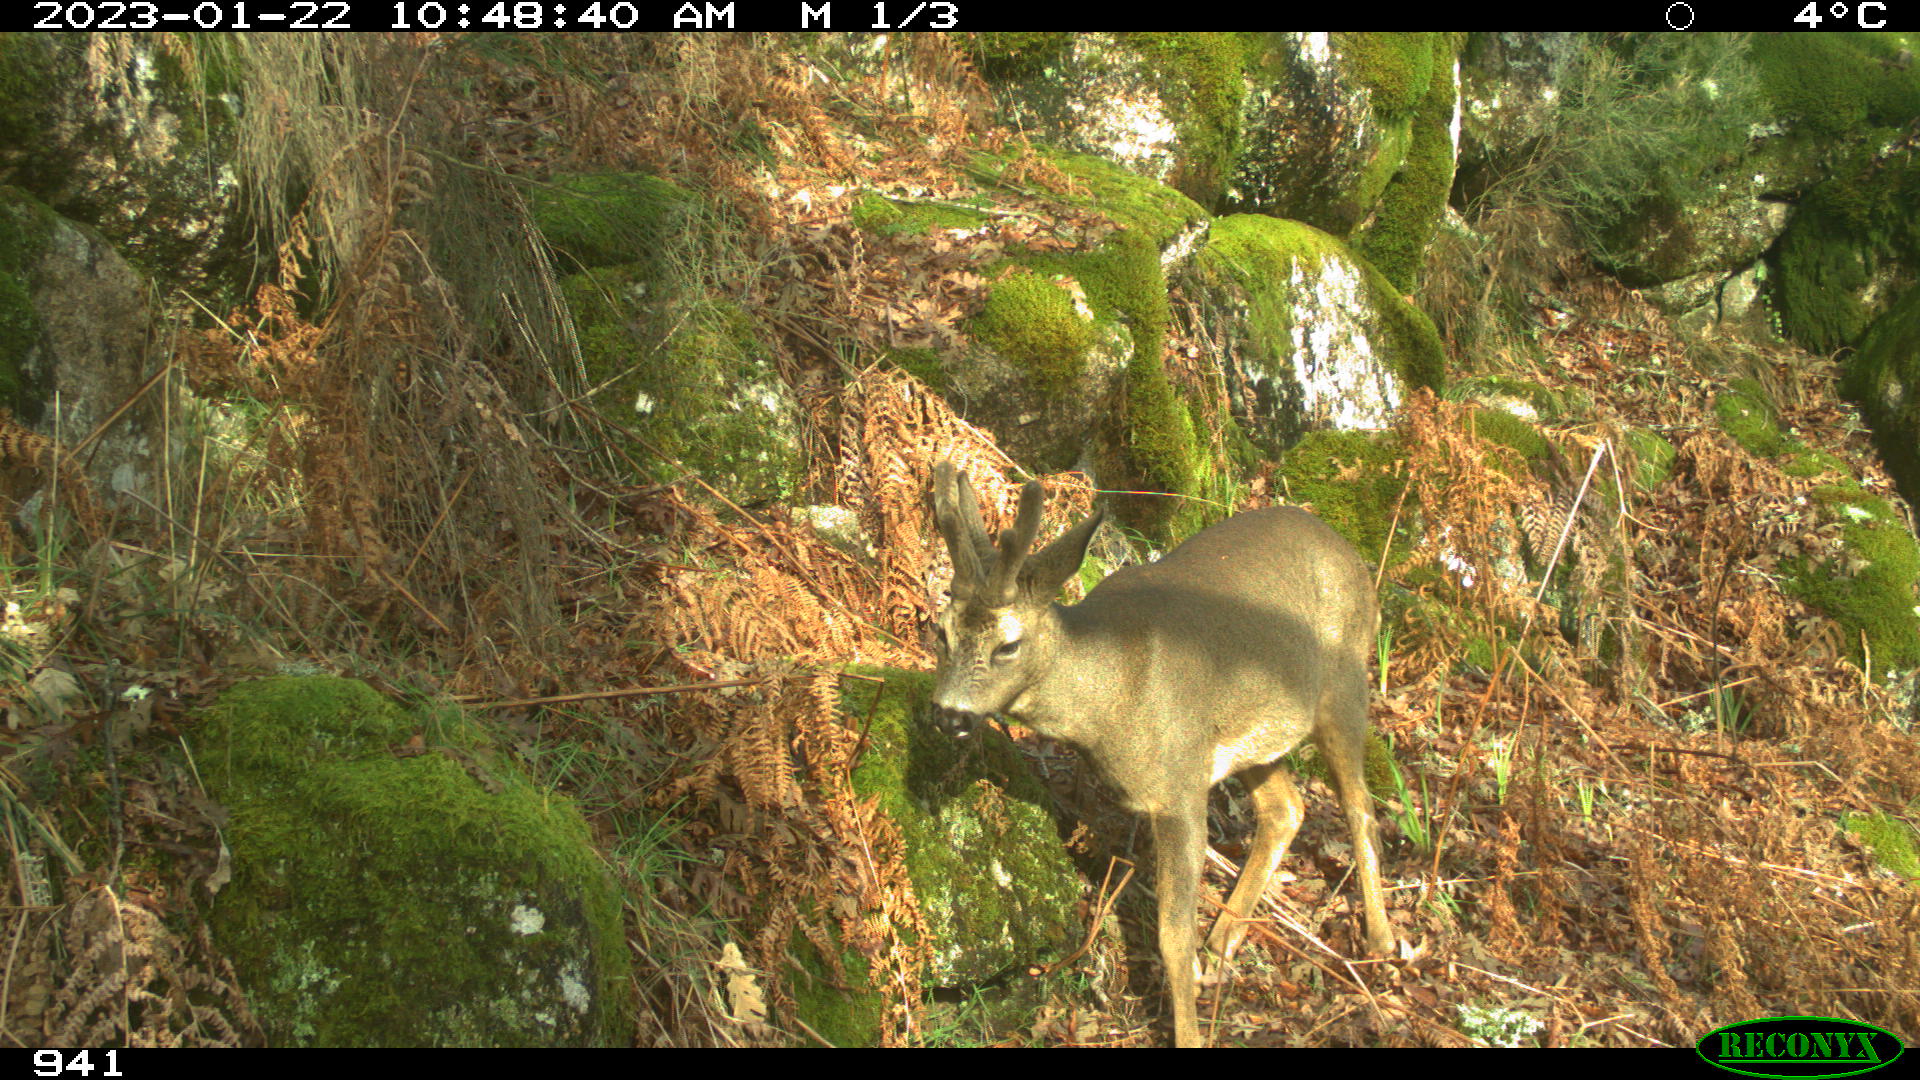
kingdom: Animalia
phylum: Chordata
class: Mammalia
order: Artiodactyla
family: Cervidae
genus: Capreolus
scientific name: Capreolus capreolus
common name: Western roe deer
